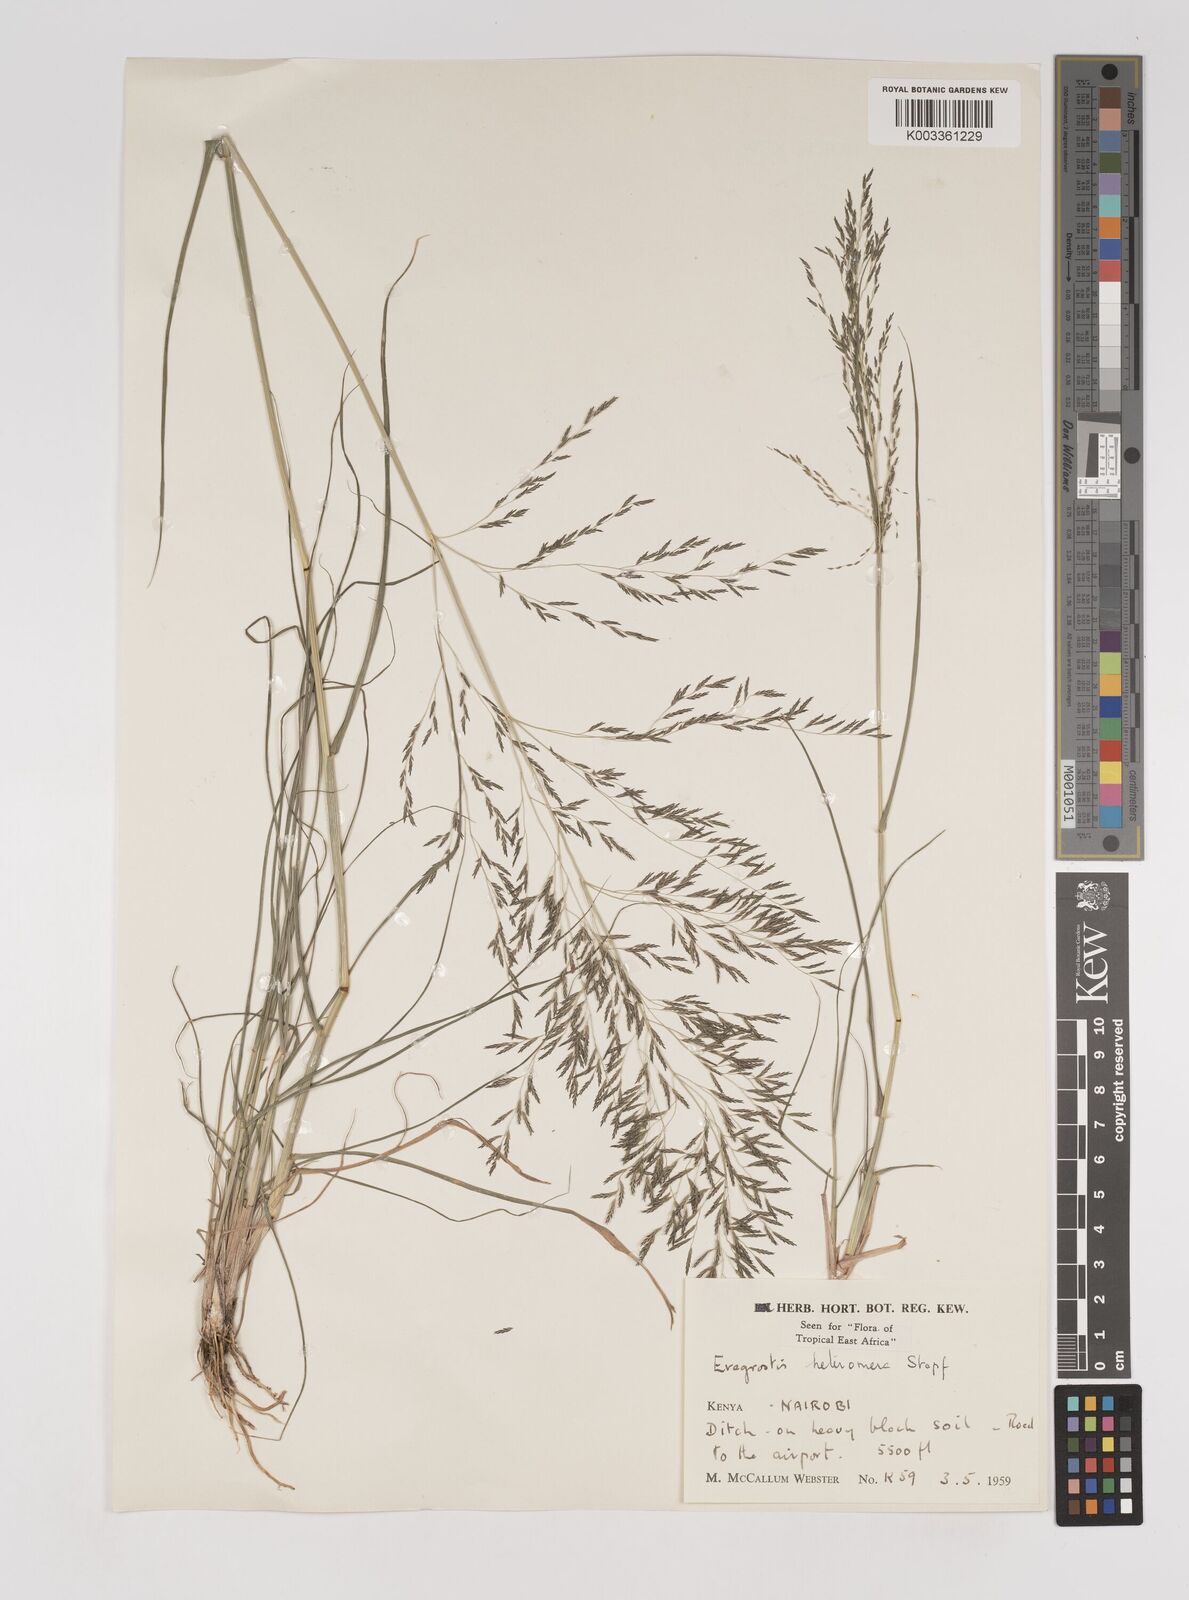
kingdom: Plantae
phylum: Tracheophyta
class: Liliopsida
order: Poales
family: Poaceae
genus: Eragrostis
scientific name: Eragrostis heteromera
